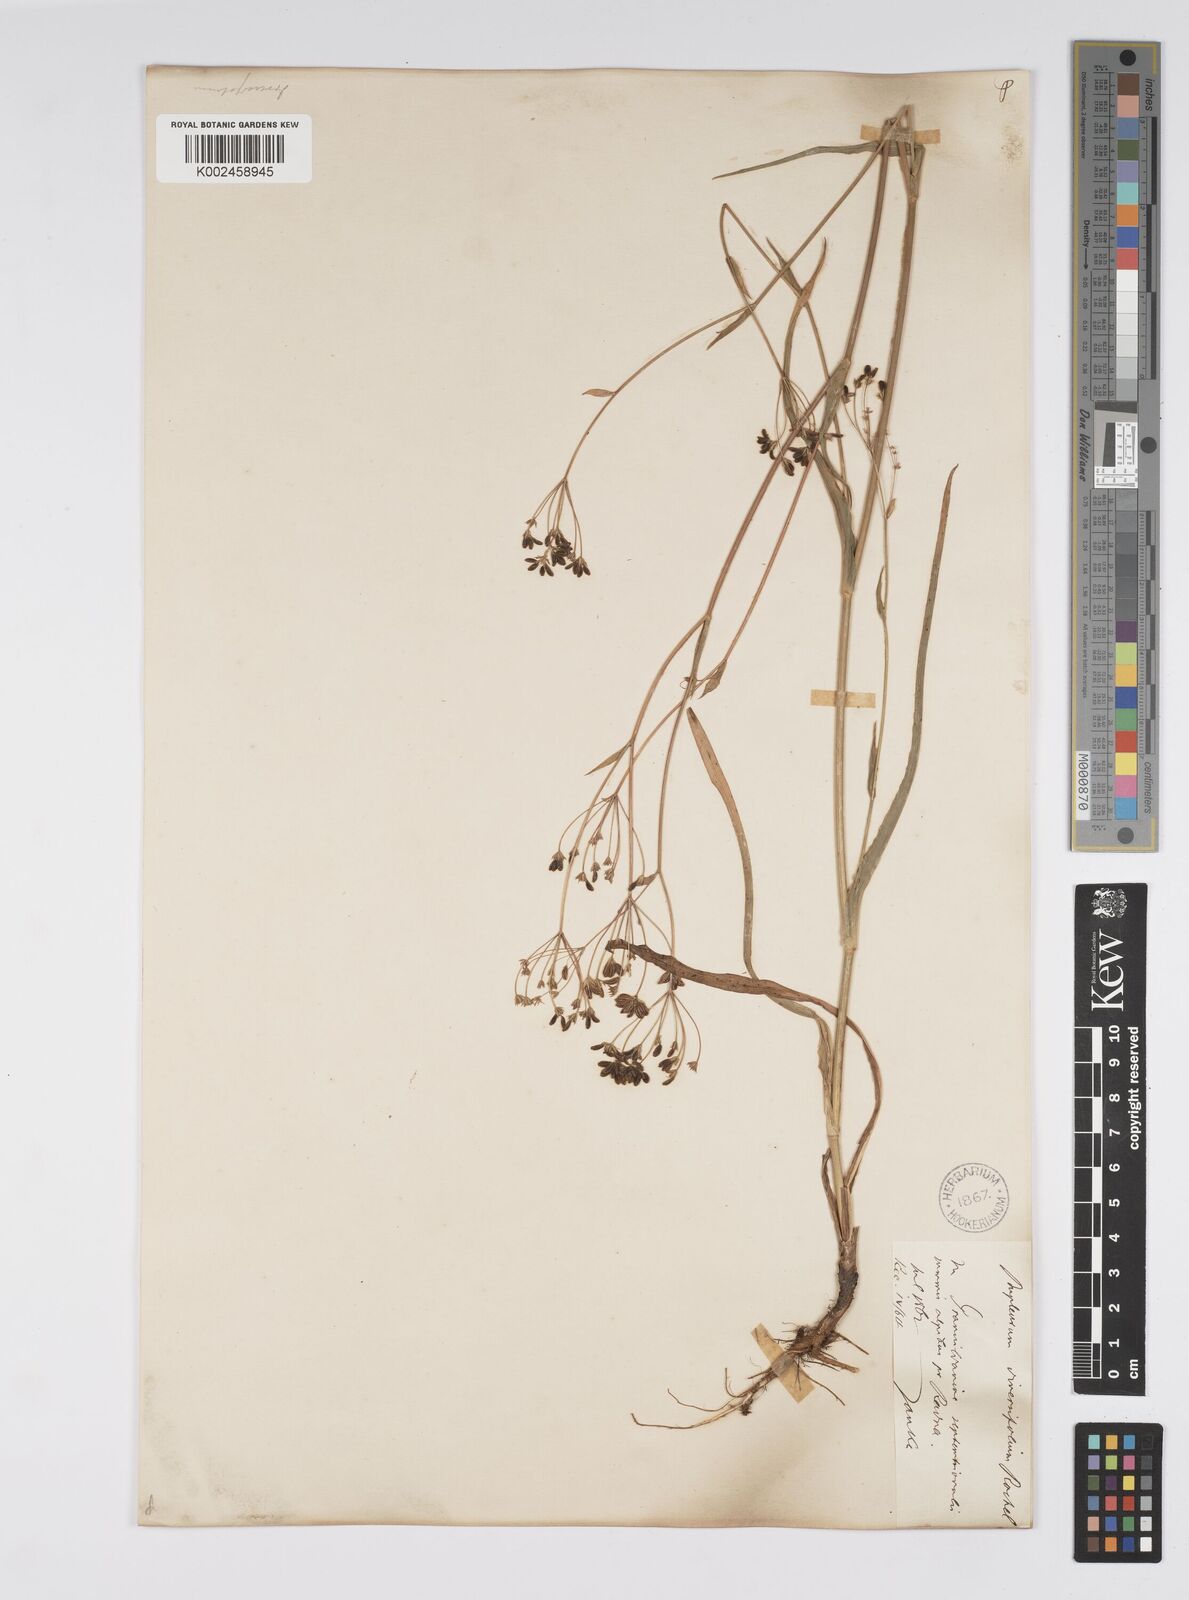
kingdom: Plantae
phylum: Tracheophyta
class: Magnoliopsida
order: Apiales
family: Apiaceae
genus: Bupleurum
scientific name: Bupleurum falcatum
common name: Sickle-leaved hare's-ear
